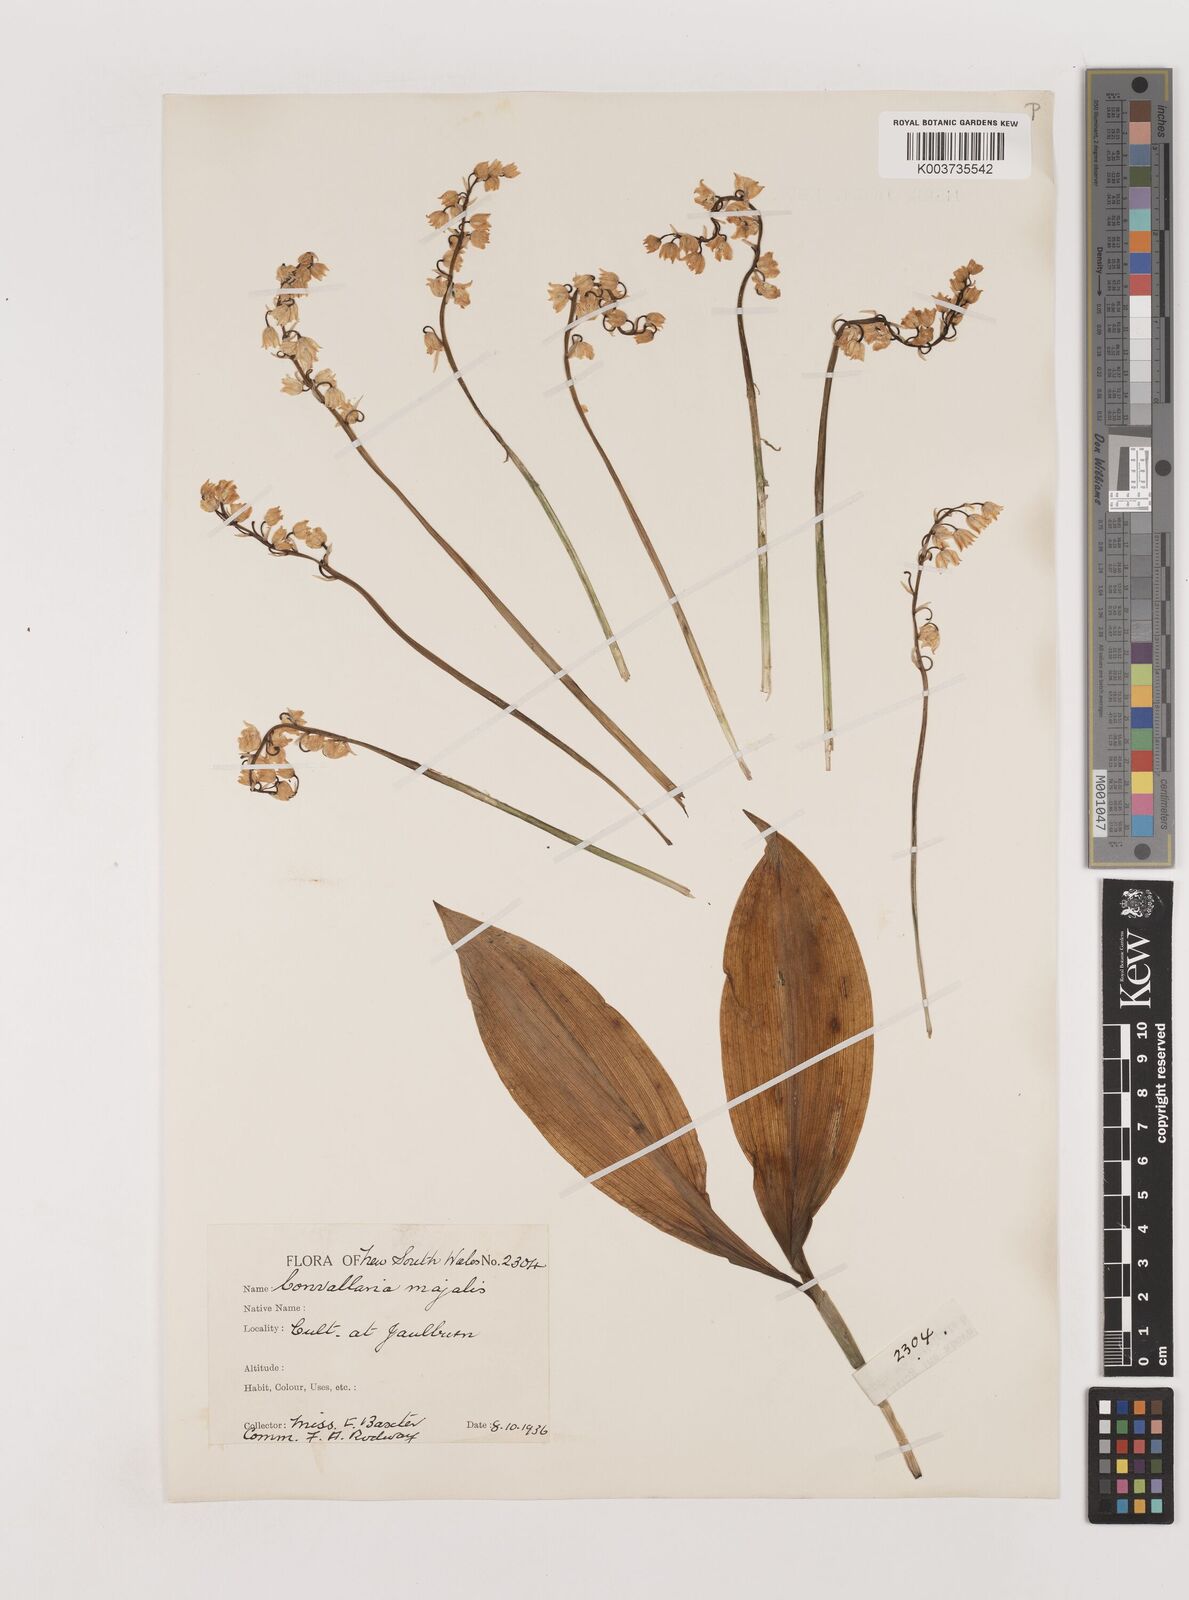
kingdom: Plantae
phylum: Tracheophyta
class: Liliopsida
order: Asparagales
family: Asparagaceae
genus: Convallaria
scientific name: Convallaria majalis
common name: Lily-of-the-valley
